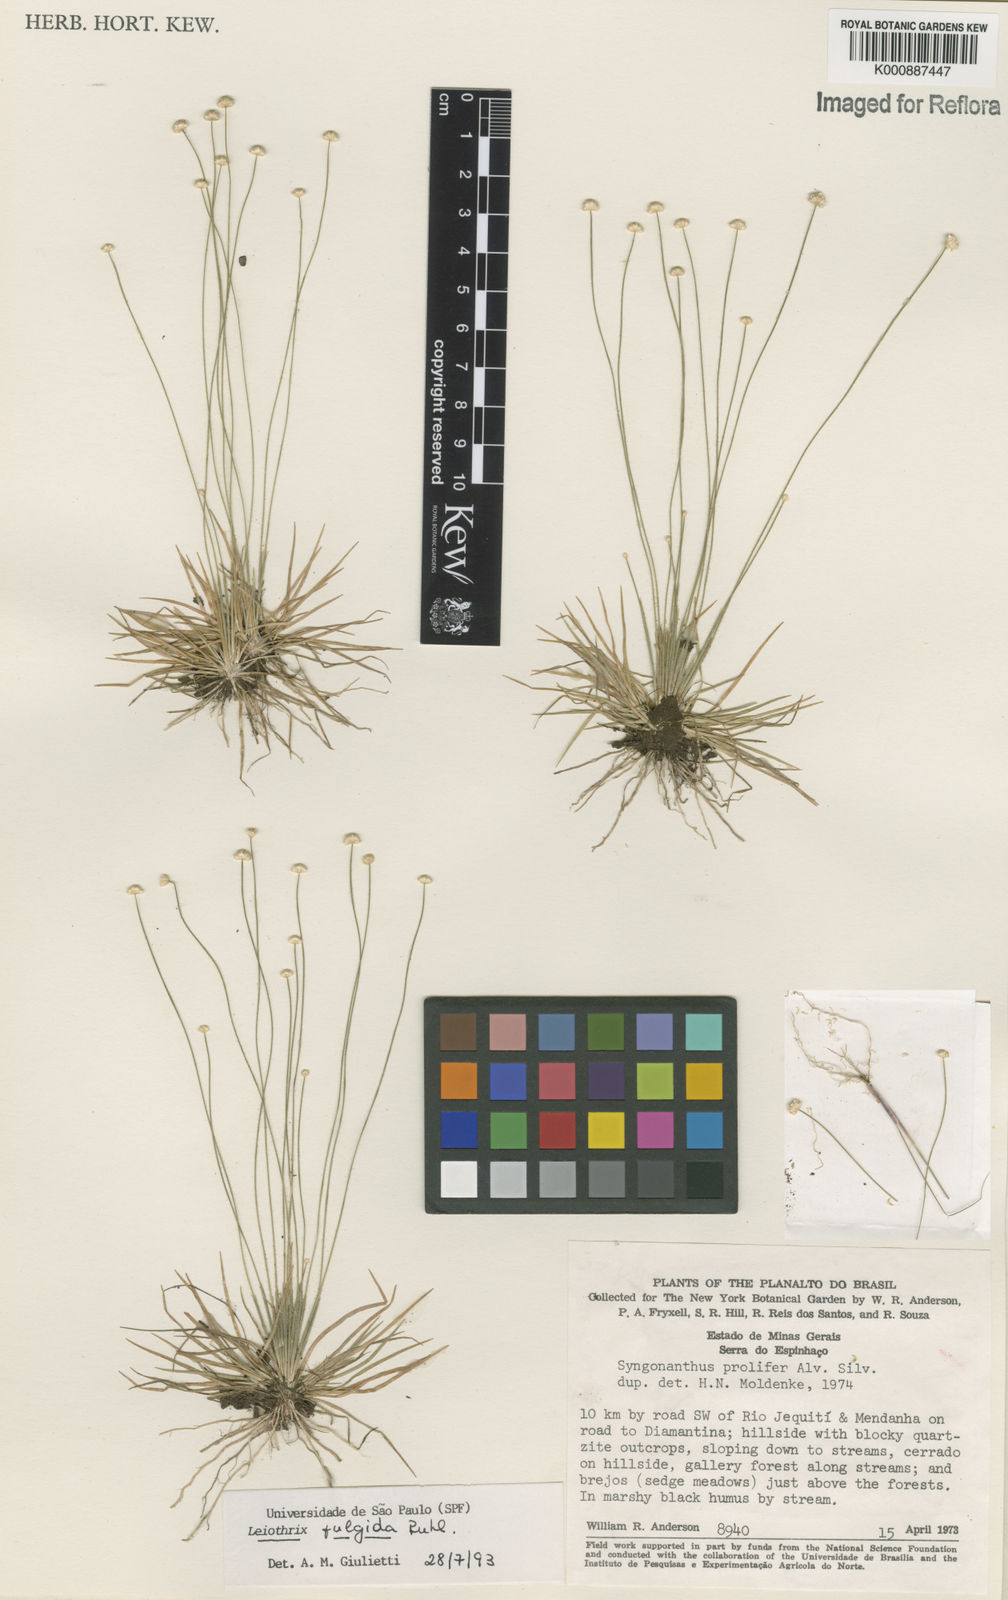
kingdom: Plantae
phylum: Tracheophyta
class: Liliopsida
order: Poales
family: Eriocaulaceae
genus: Leiothrix
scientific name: Leiothrix fulgida
